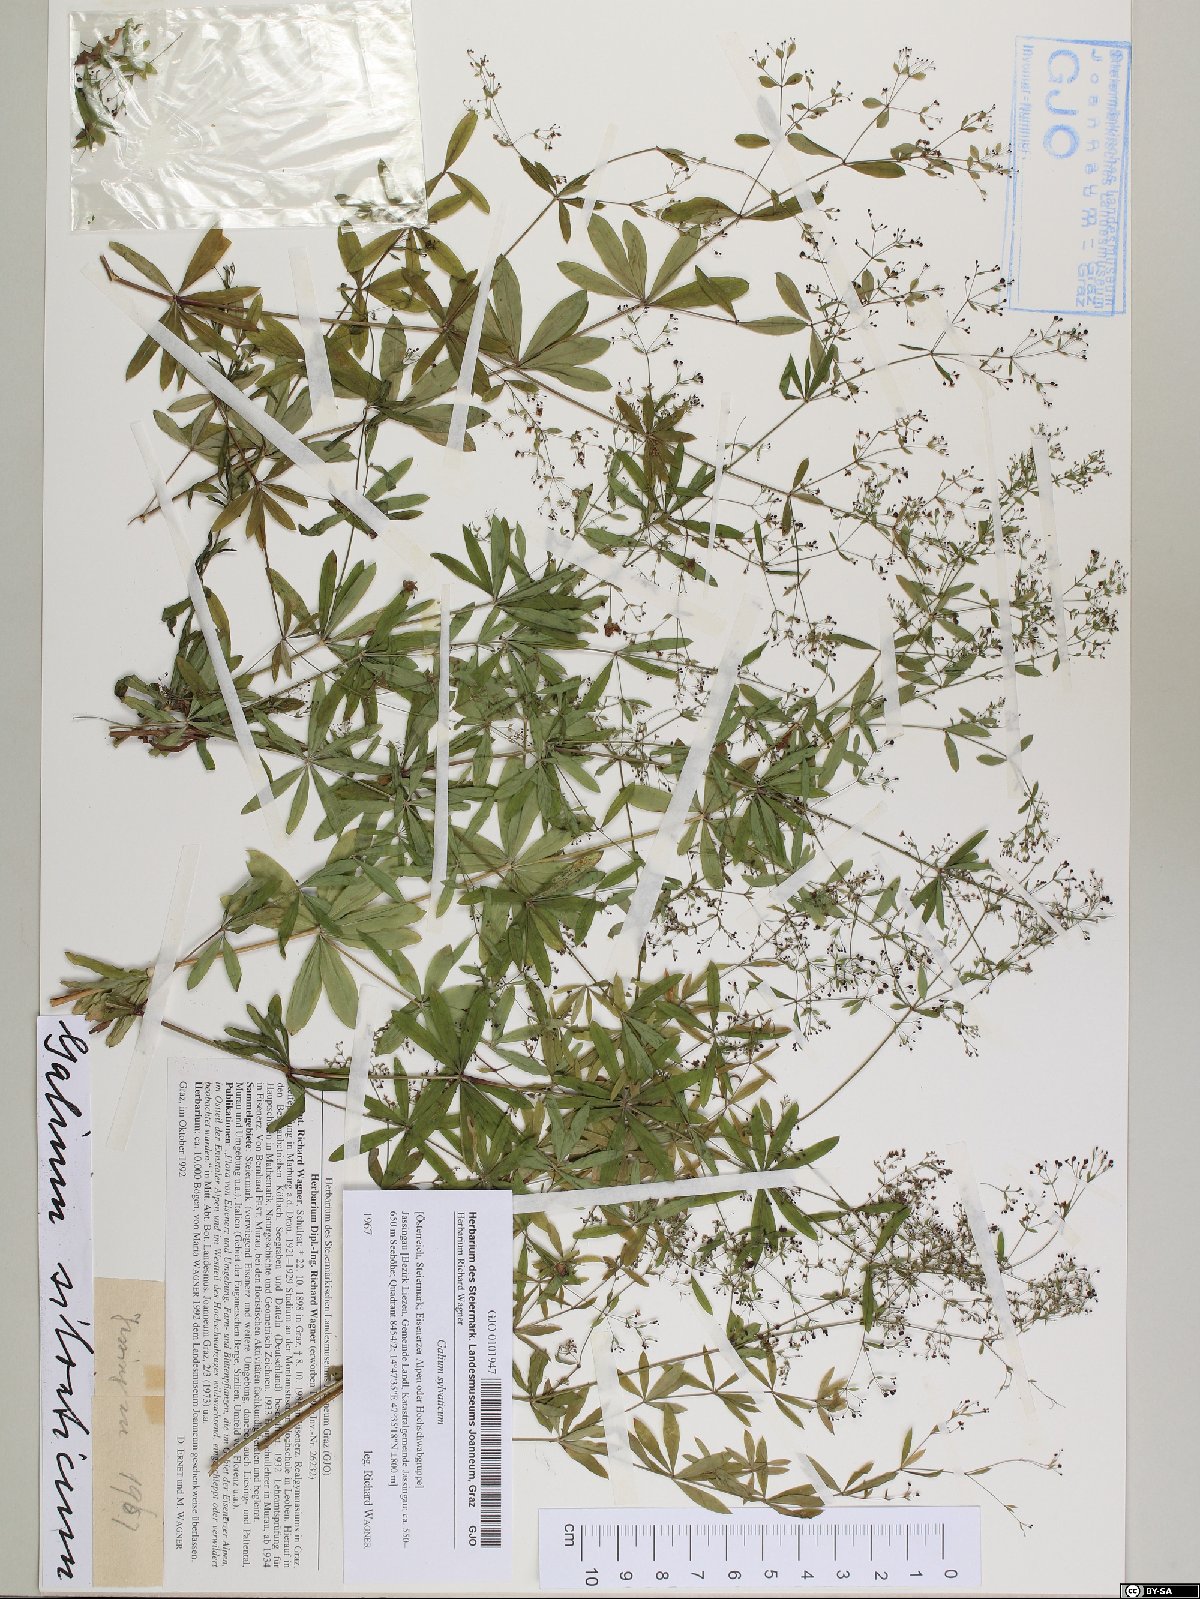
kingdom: Plantae
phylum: Tracheophyta
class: Magnoliopsida
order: Gentianales
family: Rubiaceae
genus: Galium
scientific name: Galium sylvaticum
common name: Wood bedstraw
